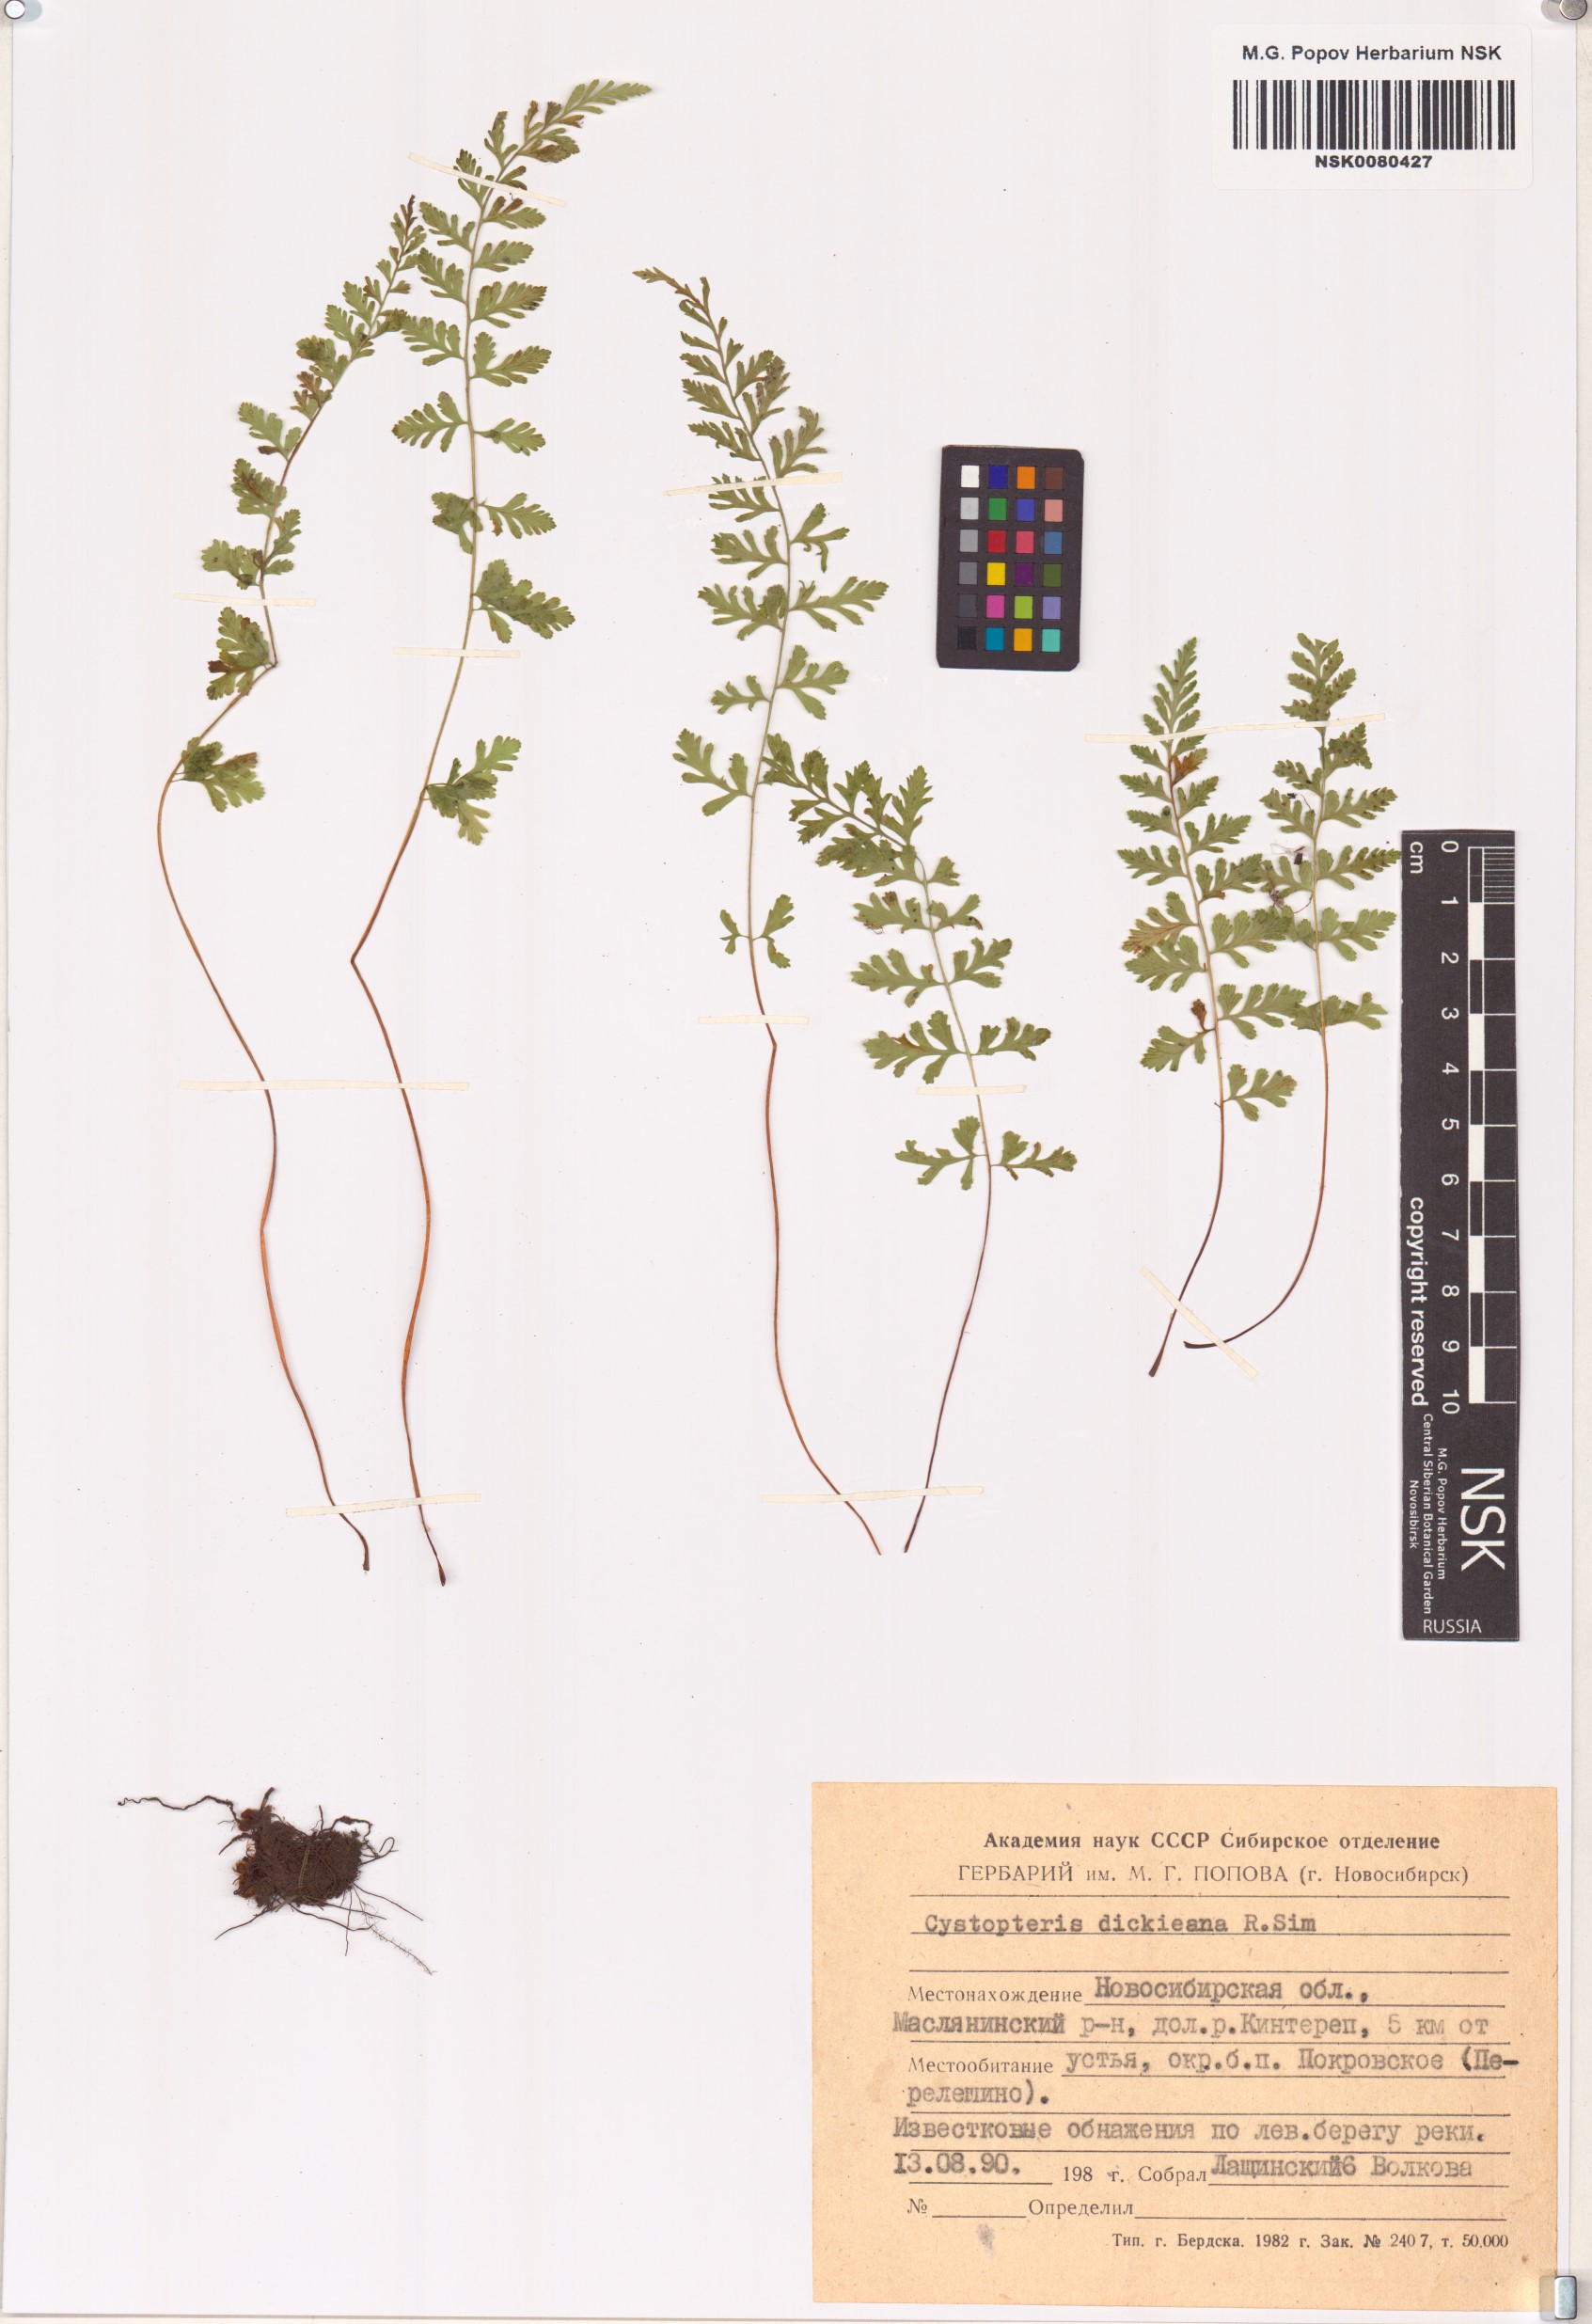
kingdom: Plantae
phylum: Tracheophyta
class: Polypodiopsida
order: Polypodiales
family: Cystopteridaceae
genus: Cystopteris
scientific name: Cystopteris dickieana
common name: Dickie's bladder-fern
